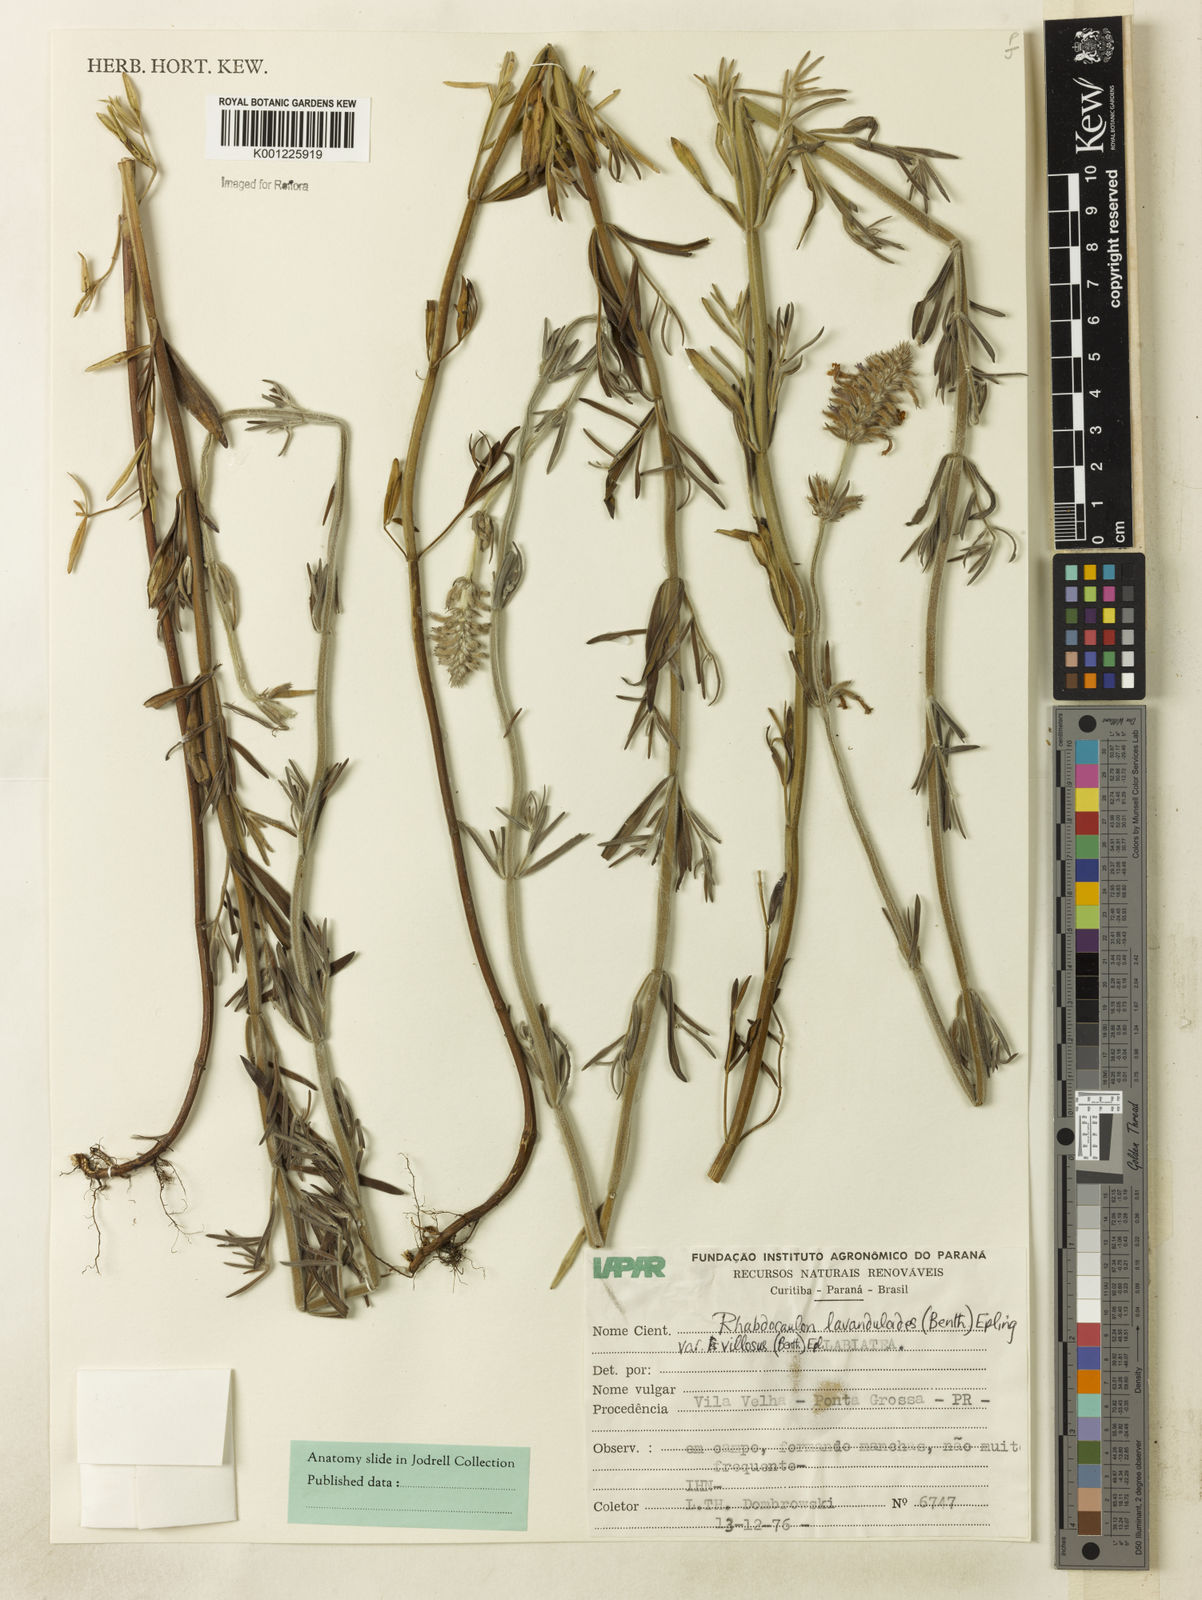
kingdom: Plantae
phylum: Tracheophyta
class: Magnoliopsida
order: Lamiales
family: Lamiaceae
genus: Rhabdocaulon
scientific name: Rhabdocaulon lavanduloides
